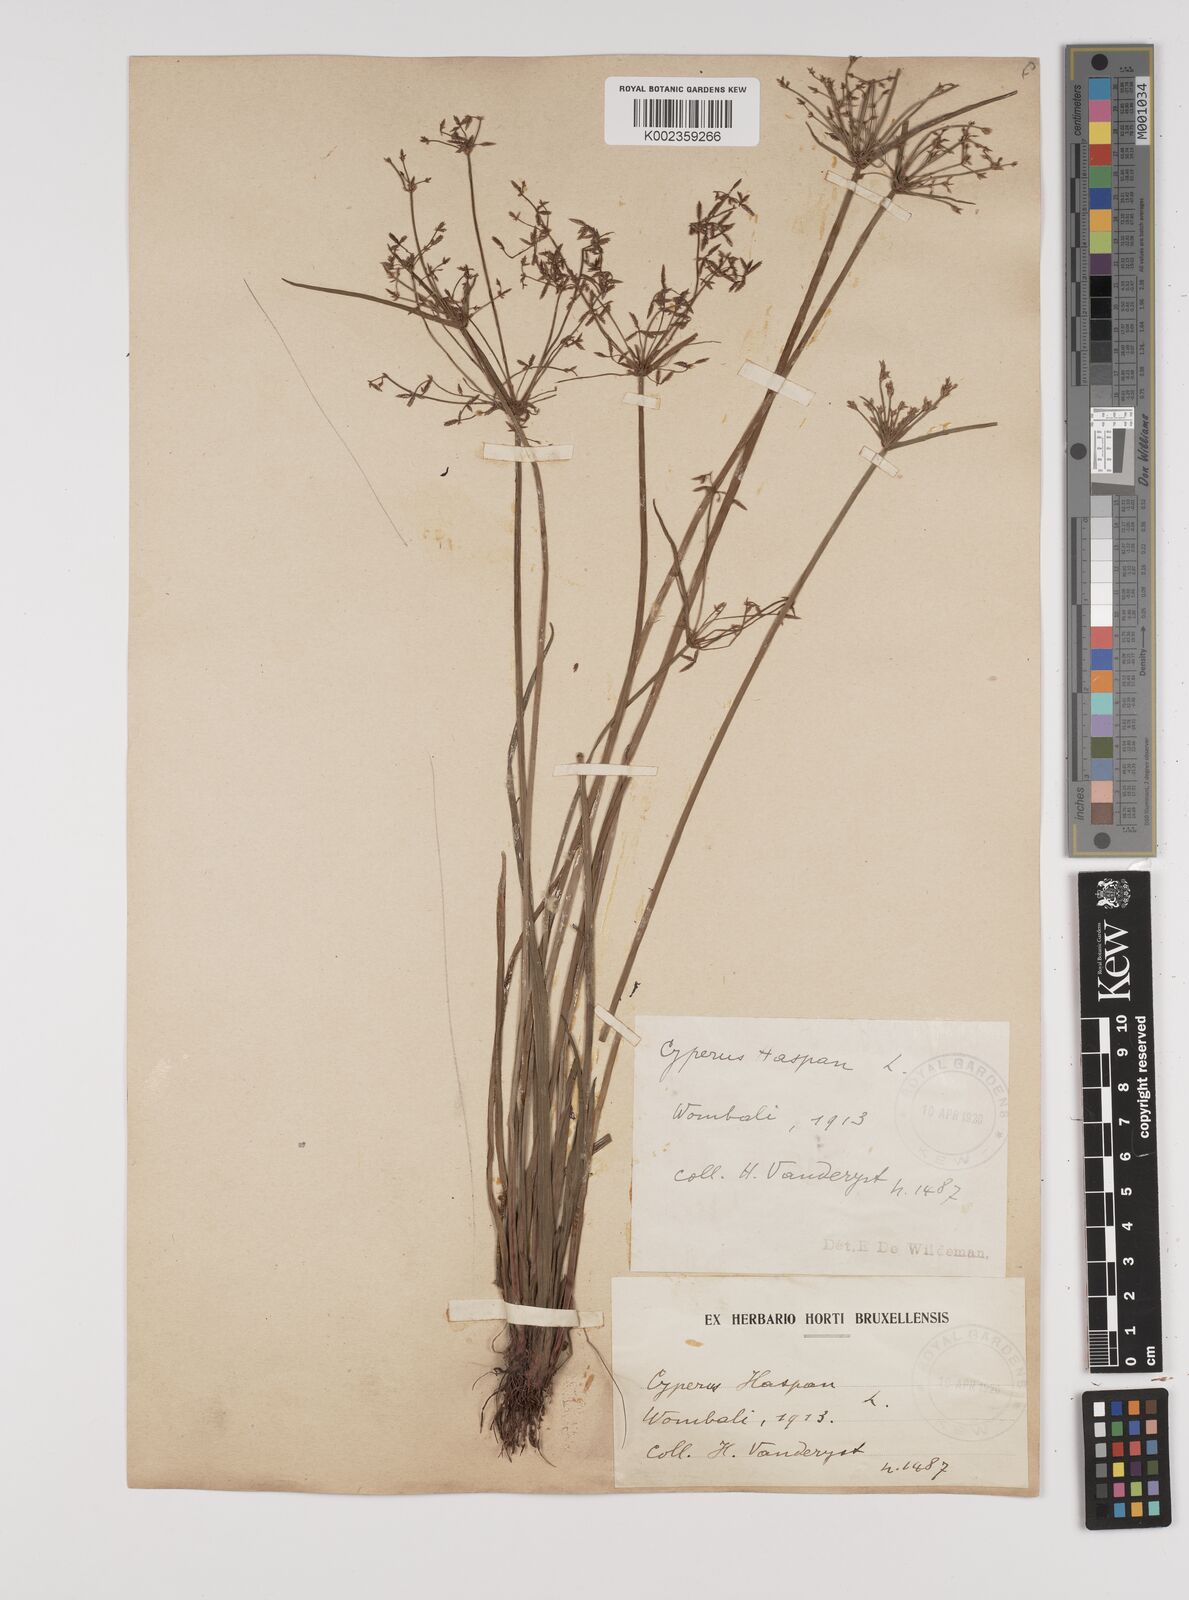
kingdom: Plantae
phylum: Tracheophyta
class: Liliopsida
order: Poales
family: Cyperaceae
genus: Cyperus
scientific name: Cyperus haspan
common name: Haspan flatsedge
